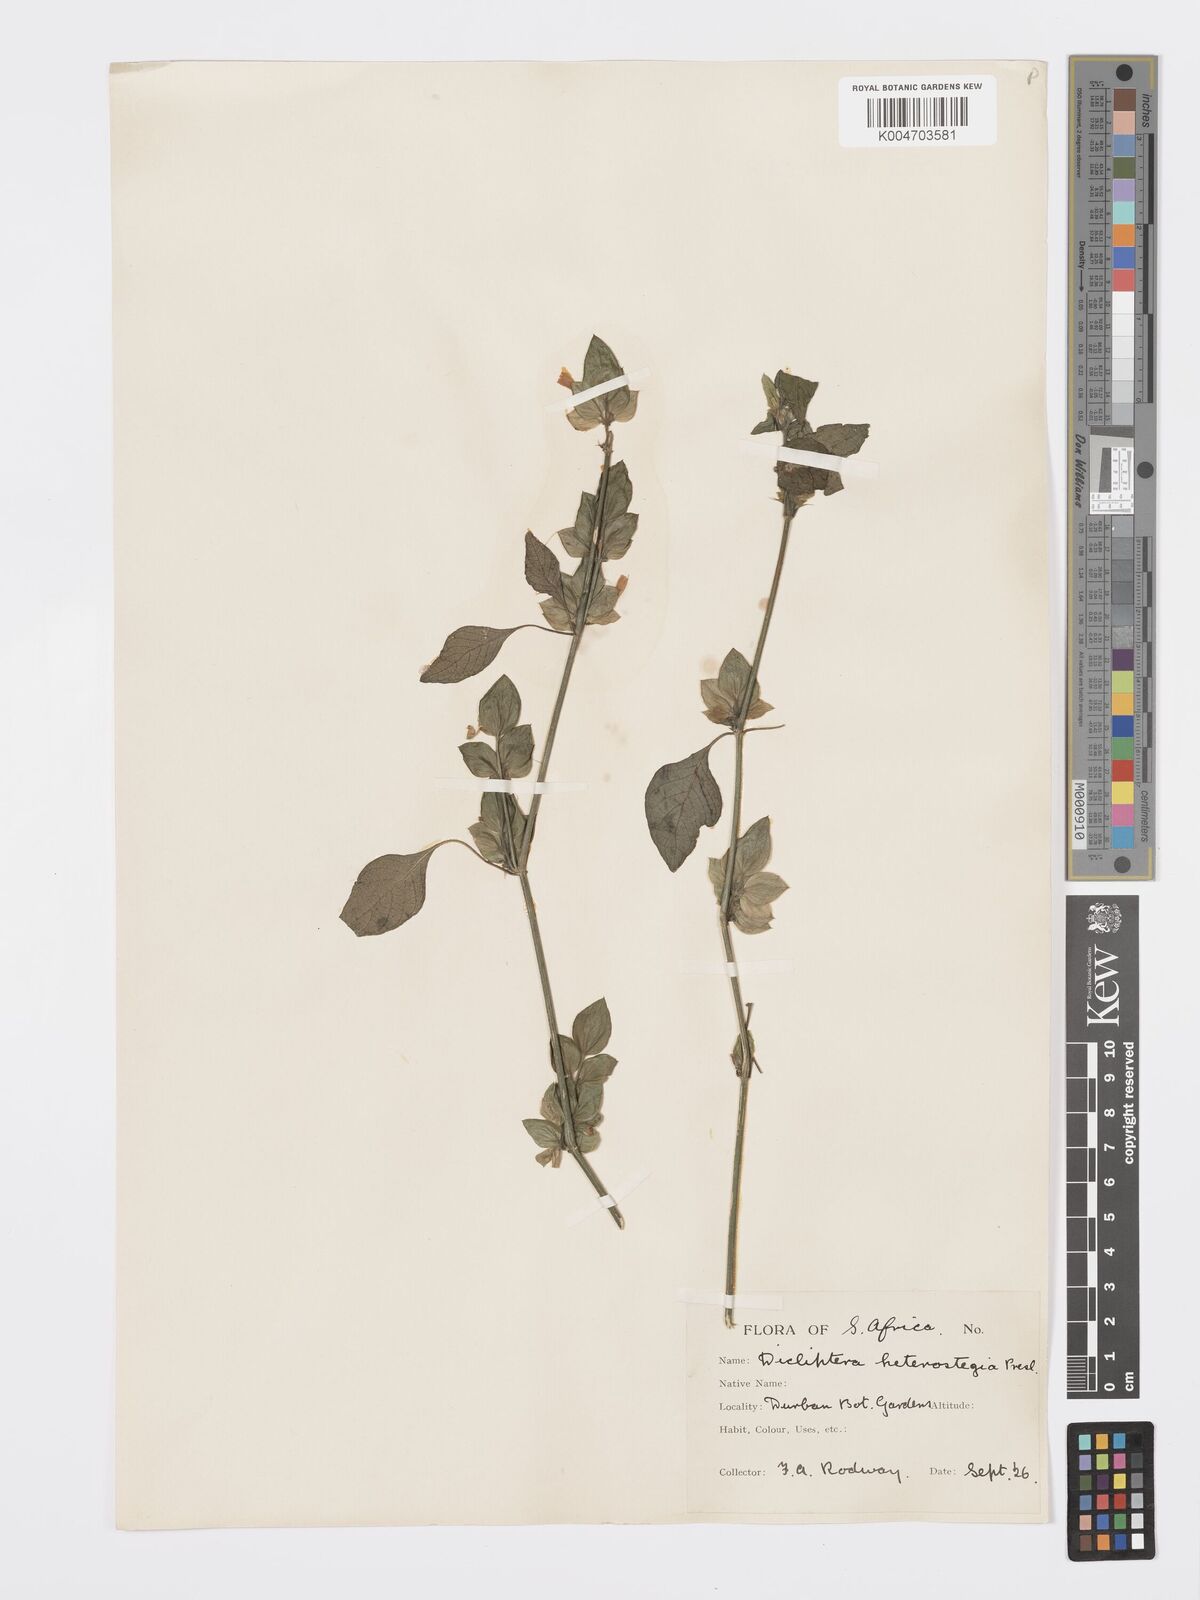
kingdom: Plantae
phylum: Tracheophyta
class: Magnoliopsida
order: Lamiales
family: Acanthaceae
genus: Dicliptera
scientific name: Dicliptera heterostegia
